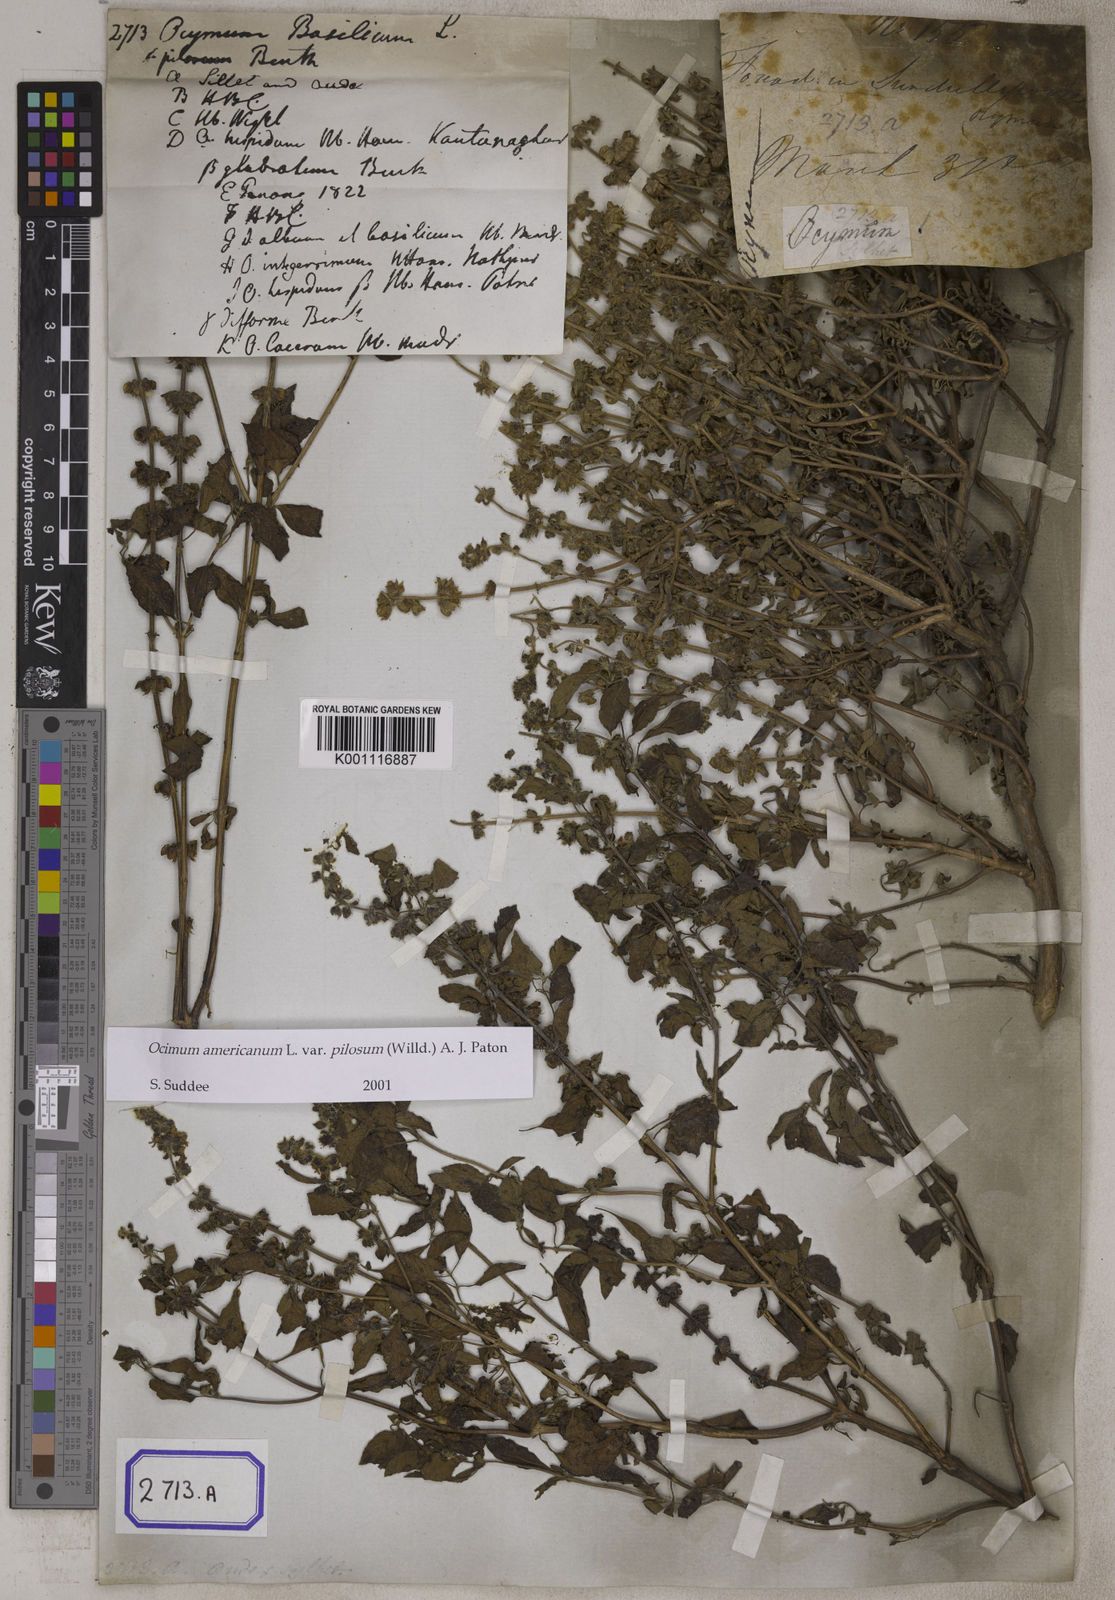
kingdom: Plantae
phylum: Tracheophyta
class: Magnoliopsida
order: Lamiales
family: Lamiaceae
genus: Ocimum
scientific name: Ocimum basilicum
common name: Sweet basil
